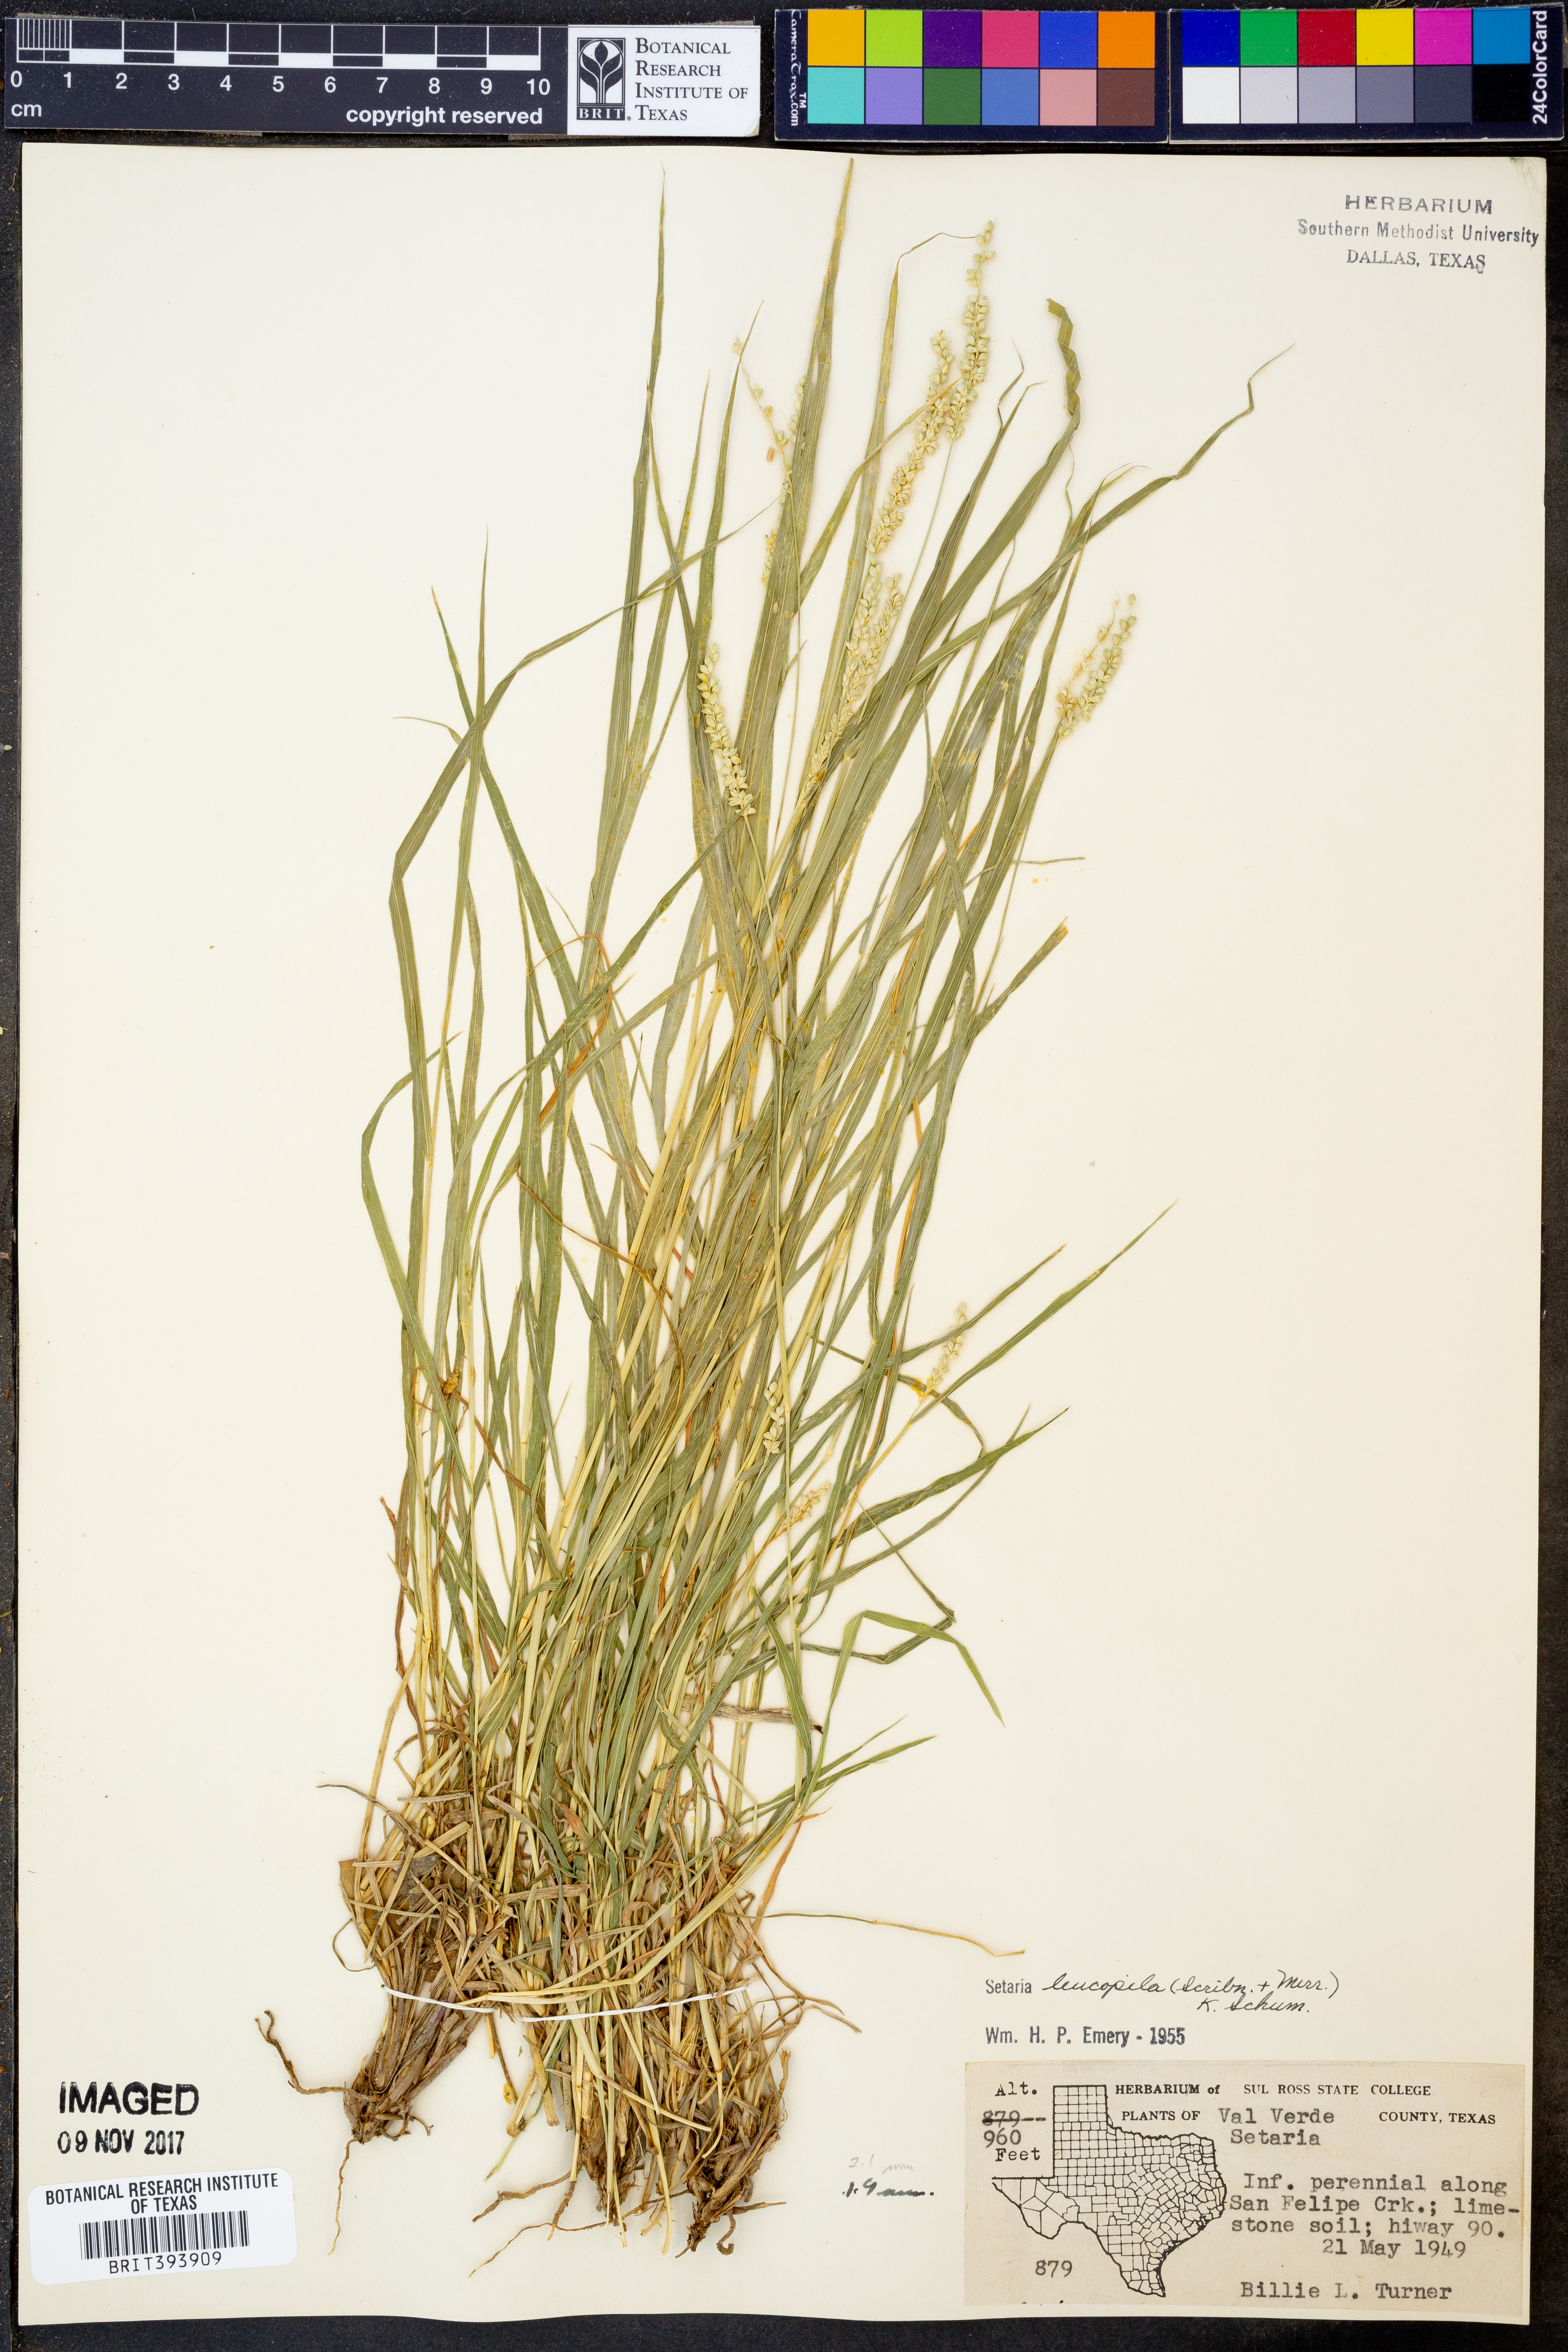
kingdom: Plantae
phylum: Tracheophyta
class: Liliopsida
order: Poales
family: Poaceae
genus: Setaria
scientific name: Setaria leucopila
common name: Plains bristle grass
